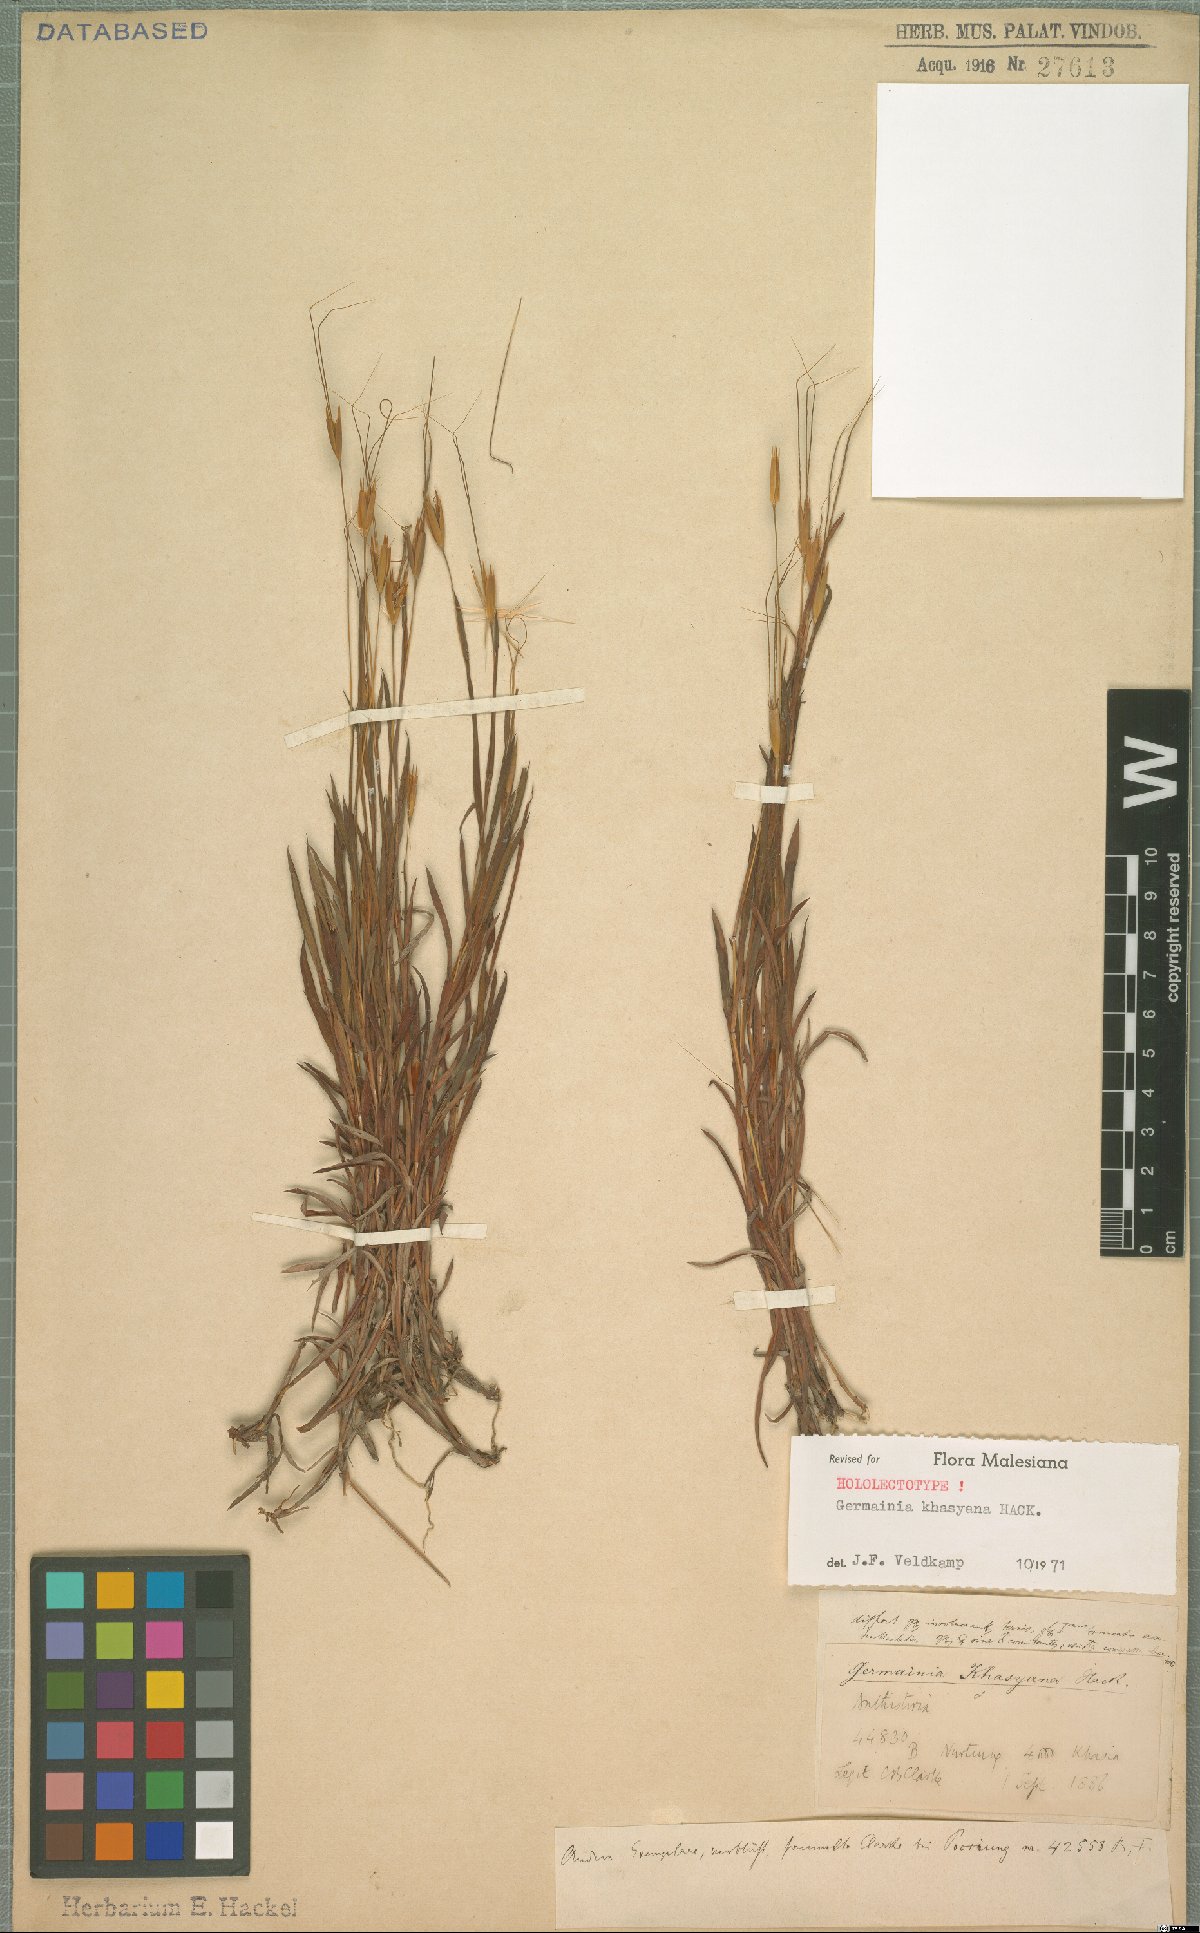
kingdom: Plantae
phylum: Tracheophyta
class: Liliopsida
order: Poales
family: Poaceae
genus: Germainia
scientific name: Germainia khasyana
